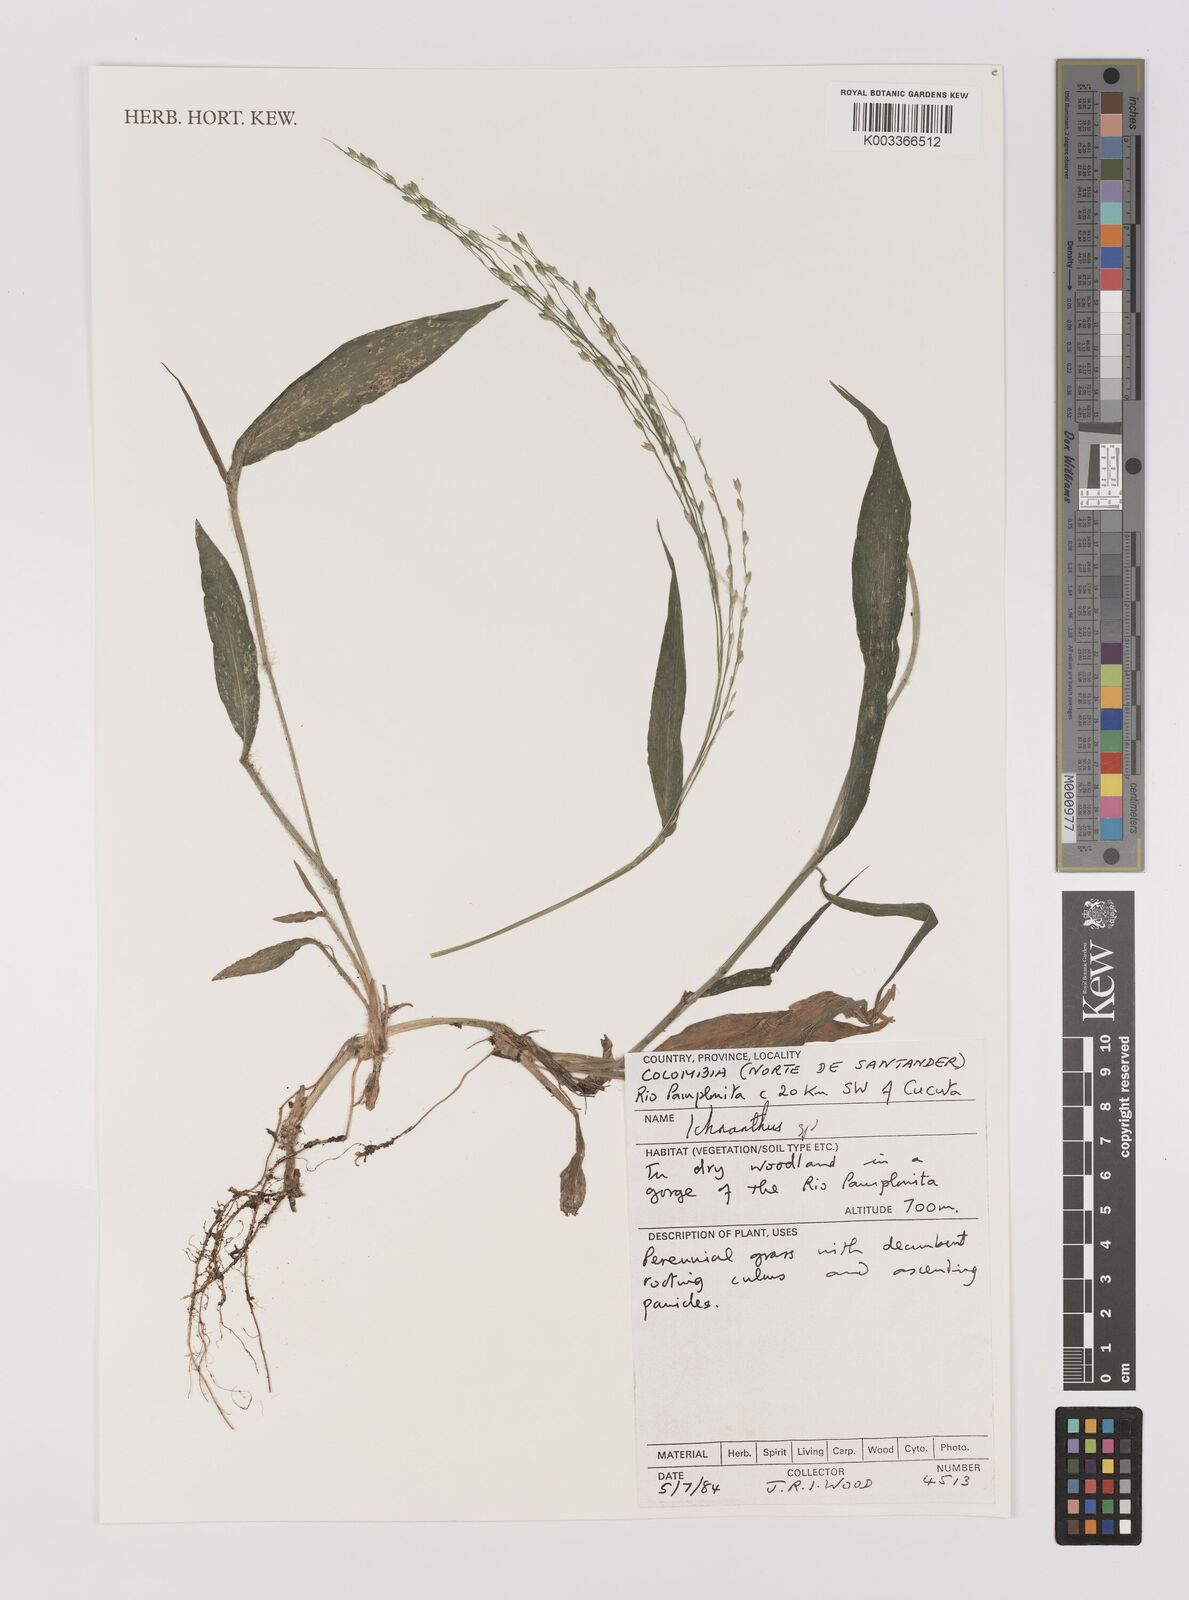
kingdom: Plantae
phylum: Tracheophyta
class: Liliopsida
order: Poales
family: Poaceae
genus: Ichnanthus
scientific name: Ichnanthus
